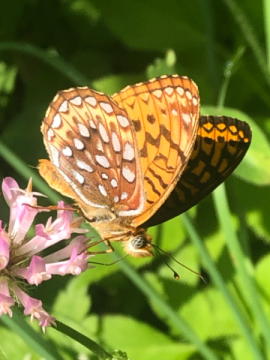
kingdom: Animalia
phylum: Arthropoda
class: Insecta
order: Lepidoptera
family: Nymphalidae
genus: Speyeria
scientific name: Speyeria atlantis
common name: Atlantis Fritillary
